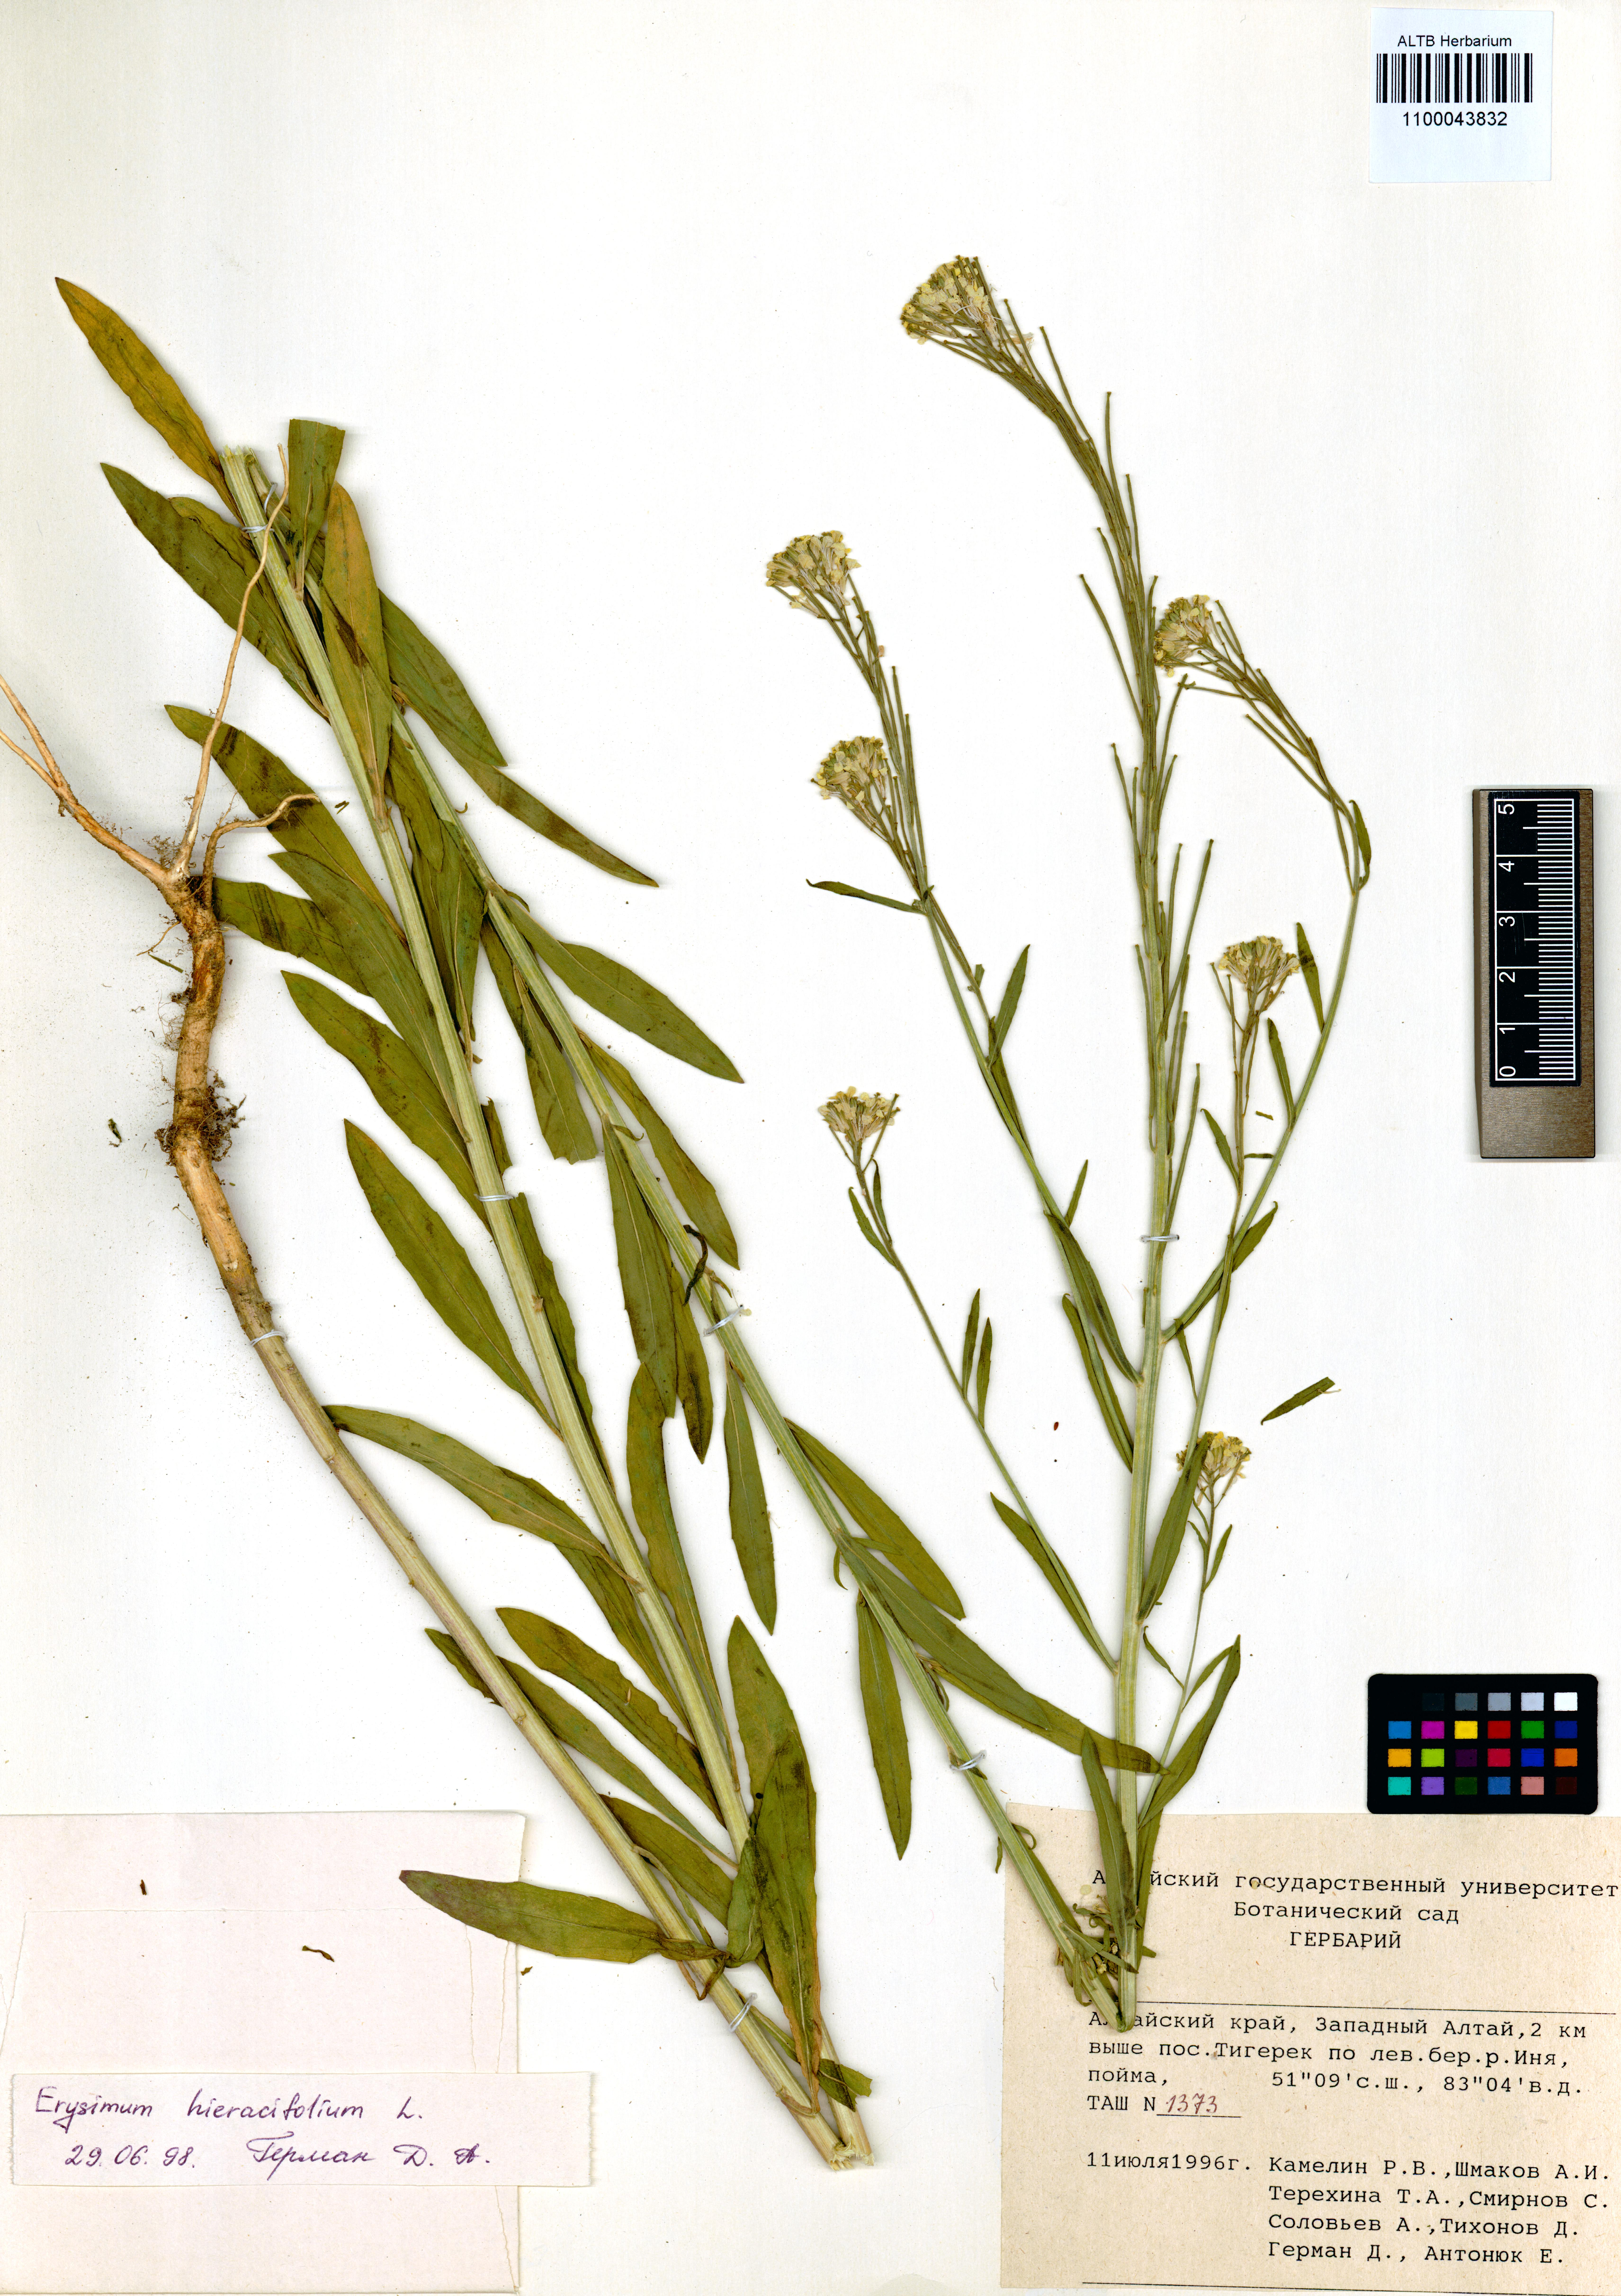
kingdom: Plantae
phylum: Tracheophyta
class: Magnoliopsida
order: Brassicales
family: Brassicaceae
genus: Erysimum
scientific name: Erysimum hieraciifolium
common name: European wallflower
